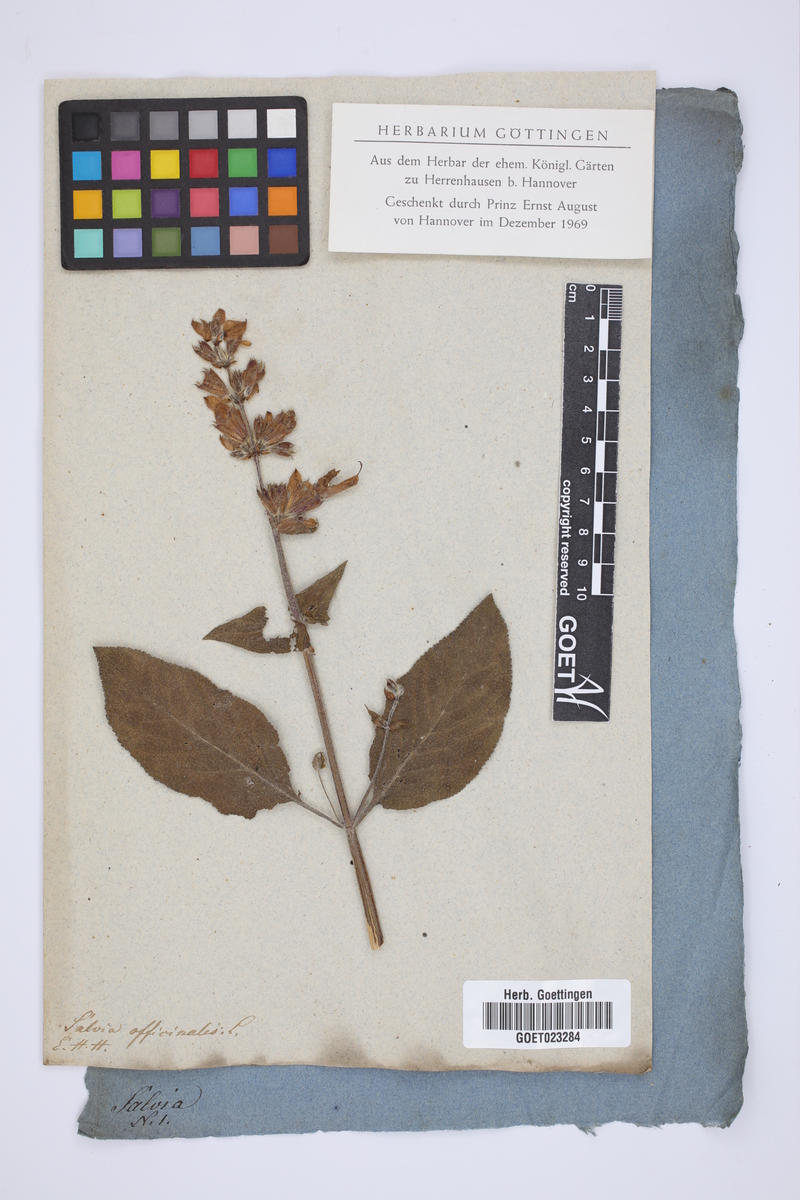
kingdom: Plantae
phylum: Tracheophyta
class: Magnoliopsida
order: Lamiales
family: Lamiaceae
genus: Salvia
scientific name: Salvia officinalis
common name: Sage
